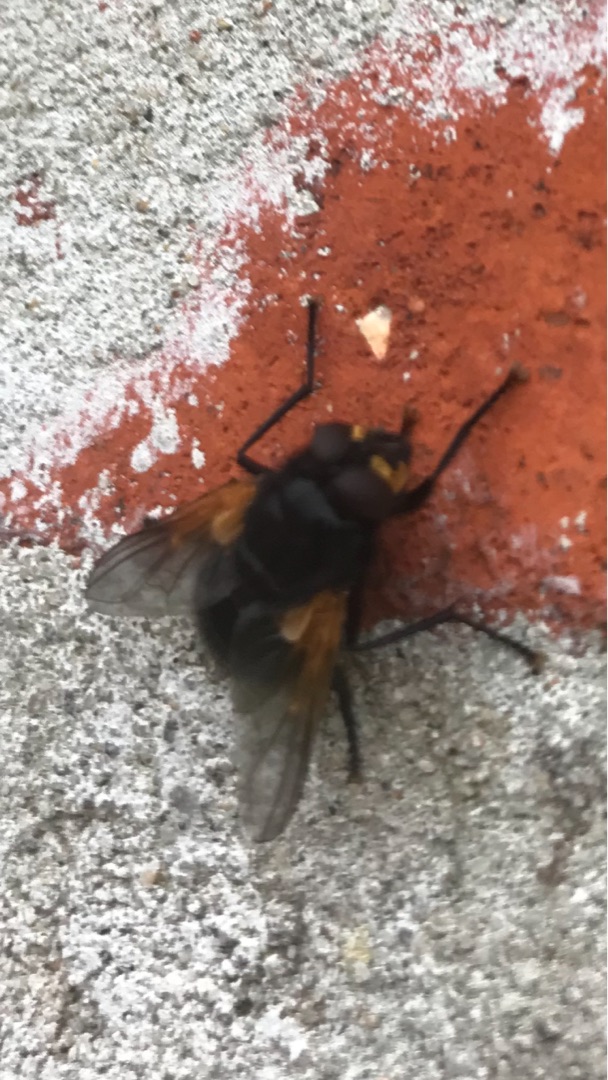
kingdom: Animalia
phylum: Arthropoda
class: Insecta
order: Diptera
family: Muscidae
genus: Mesembrina
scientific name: Mesembrina meridiana
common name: Gulvinget flue
